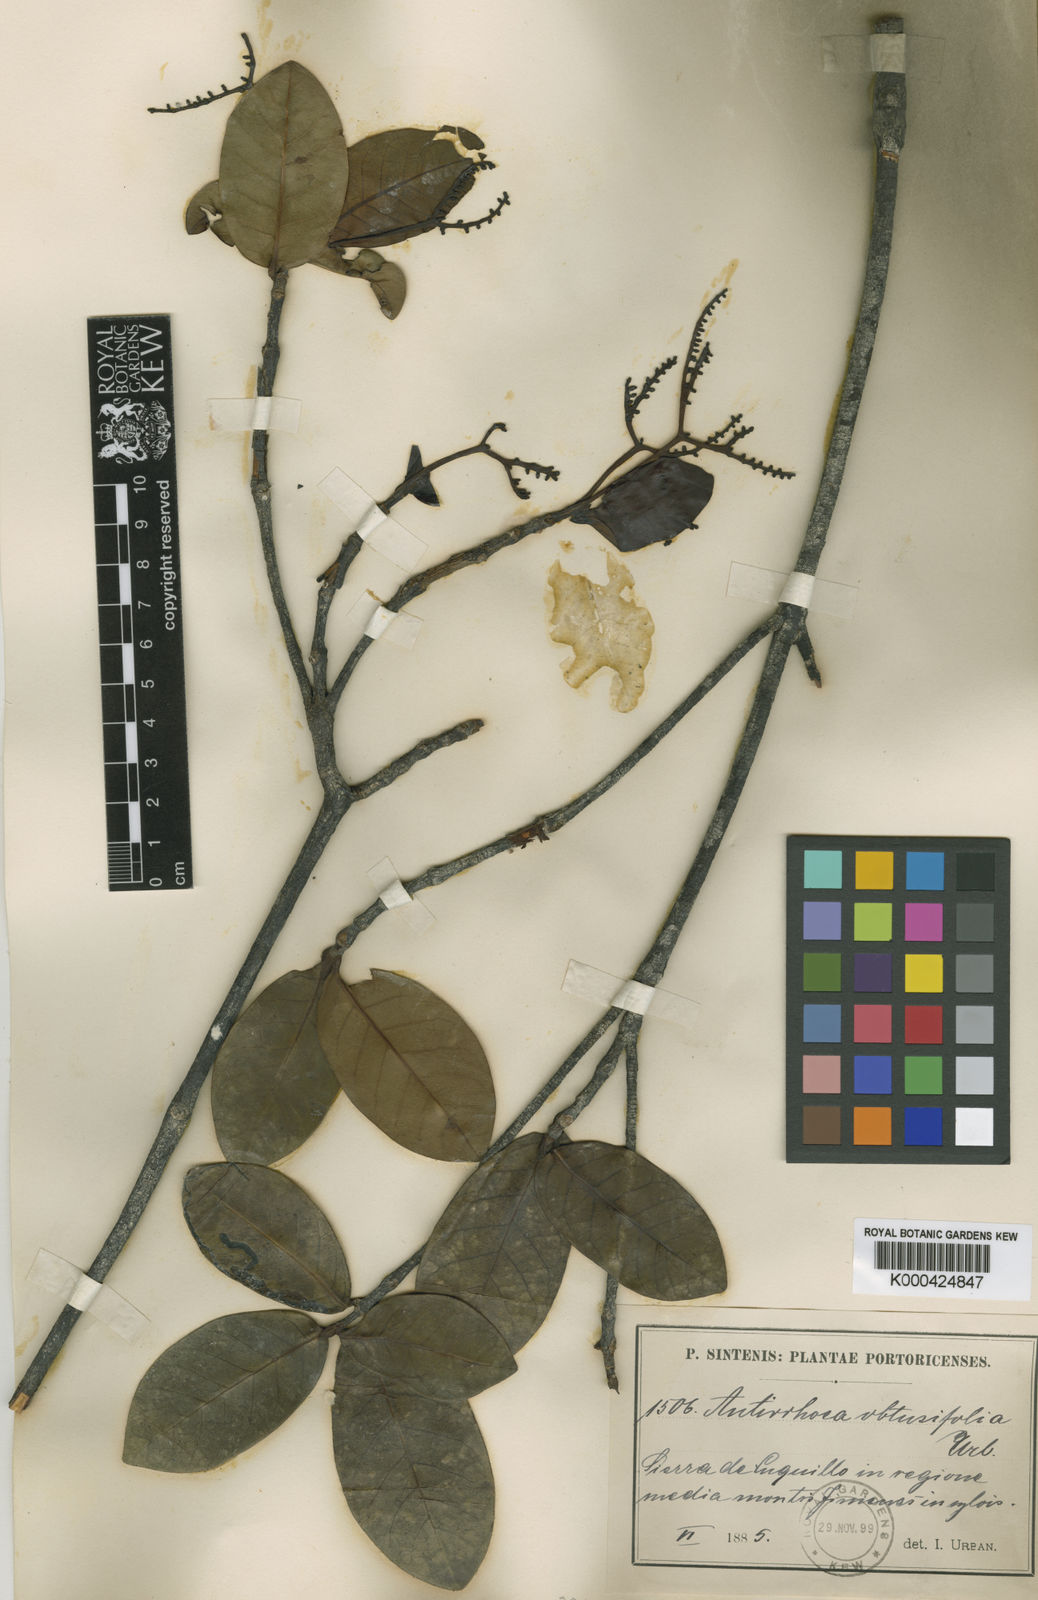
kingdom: Plantae
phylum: Tracheophyta
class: Magnoliopsida
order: Gentianales
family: Rubiaceae
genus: Stenostomum
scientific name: Stenostomum obtusifolium
